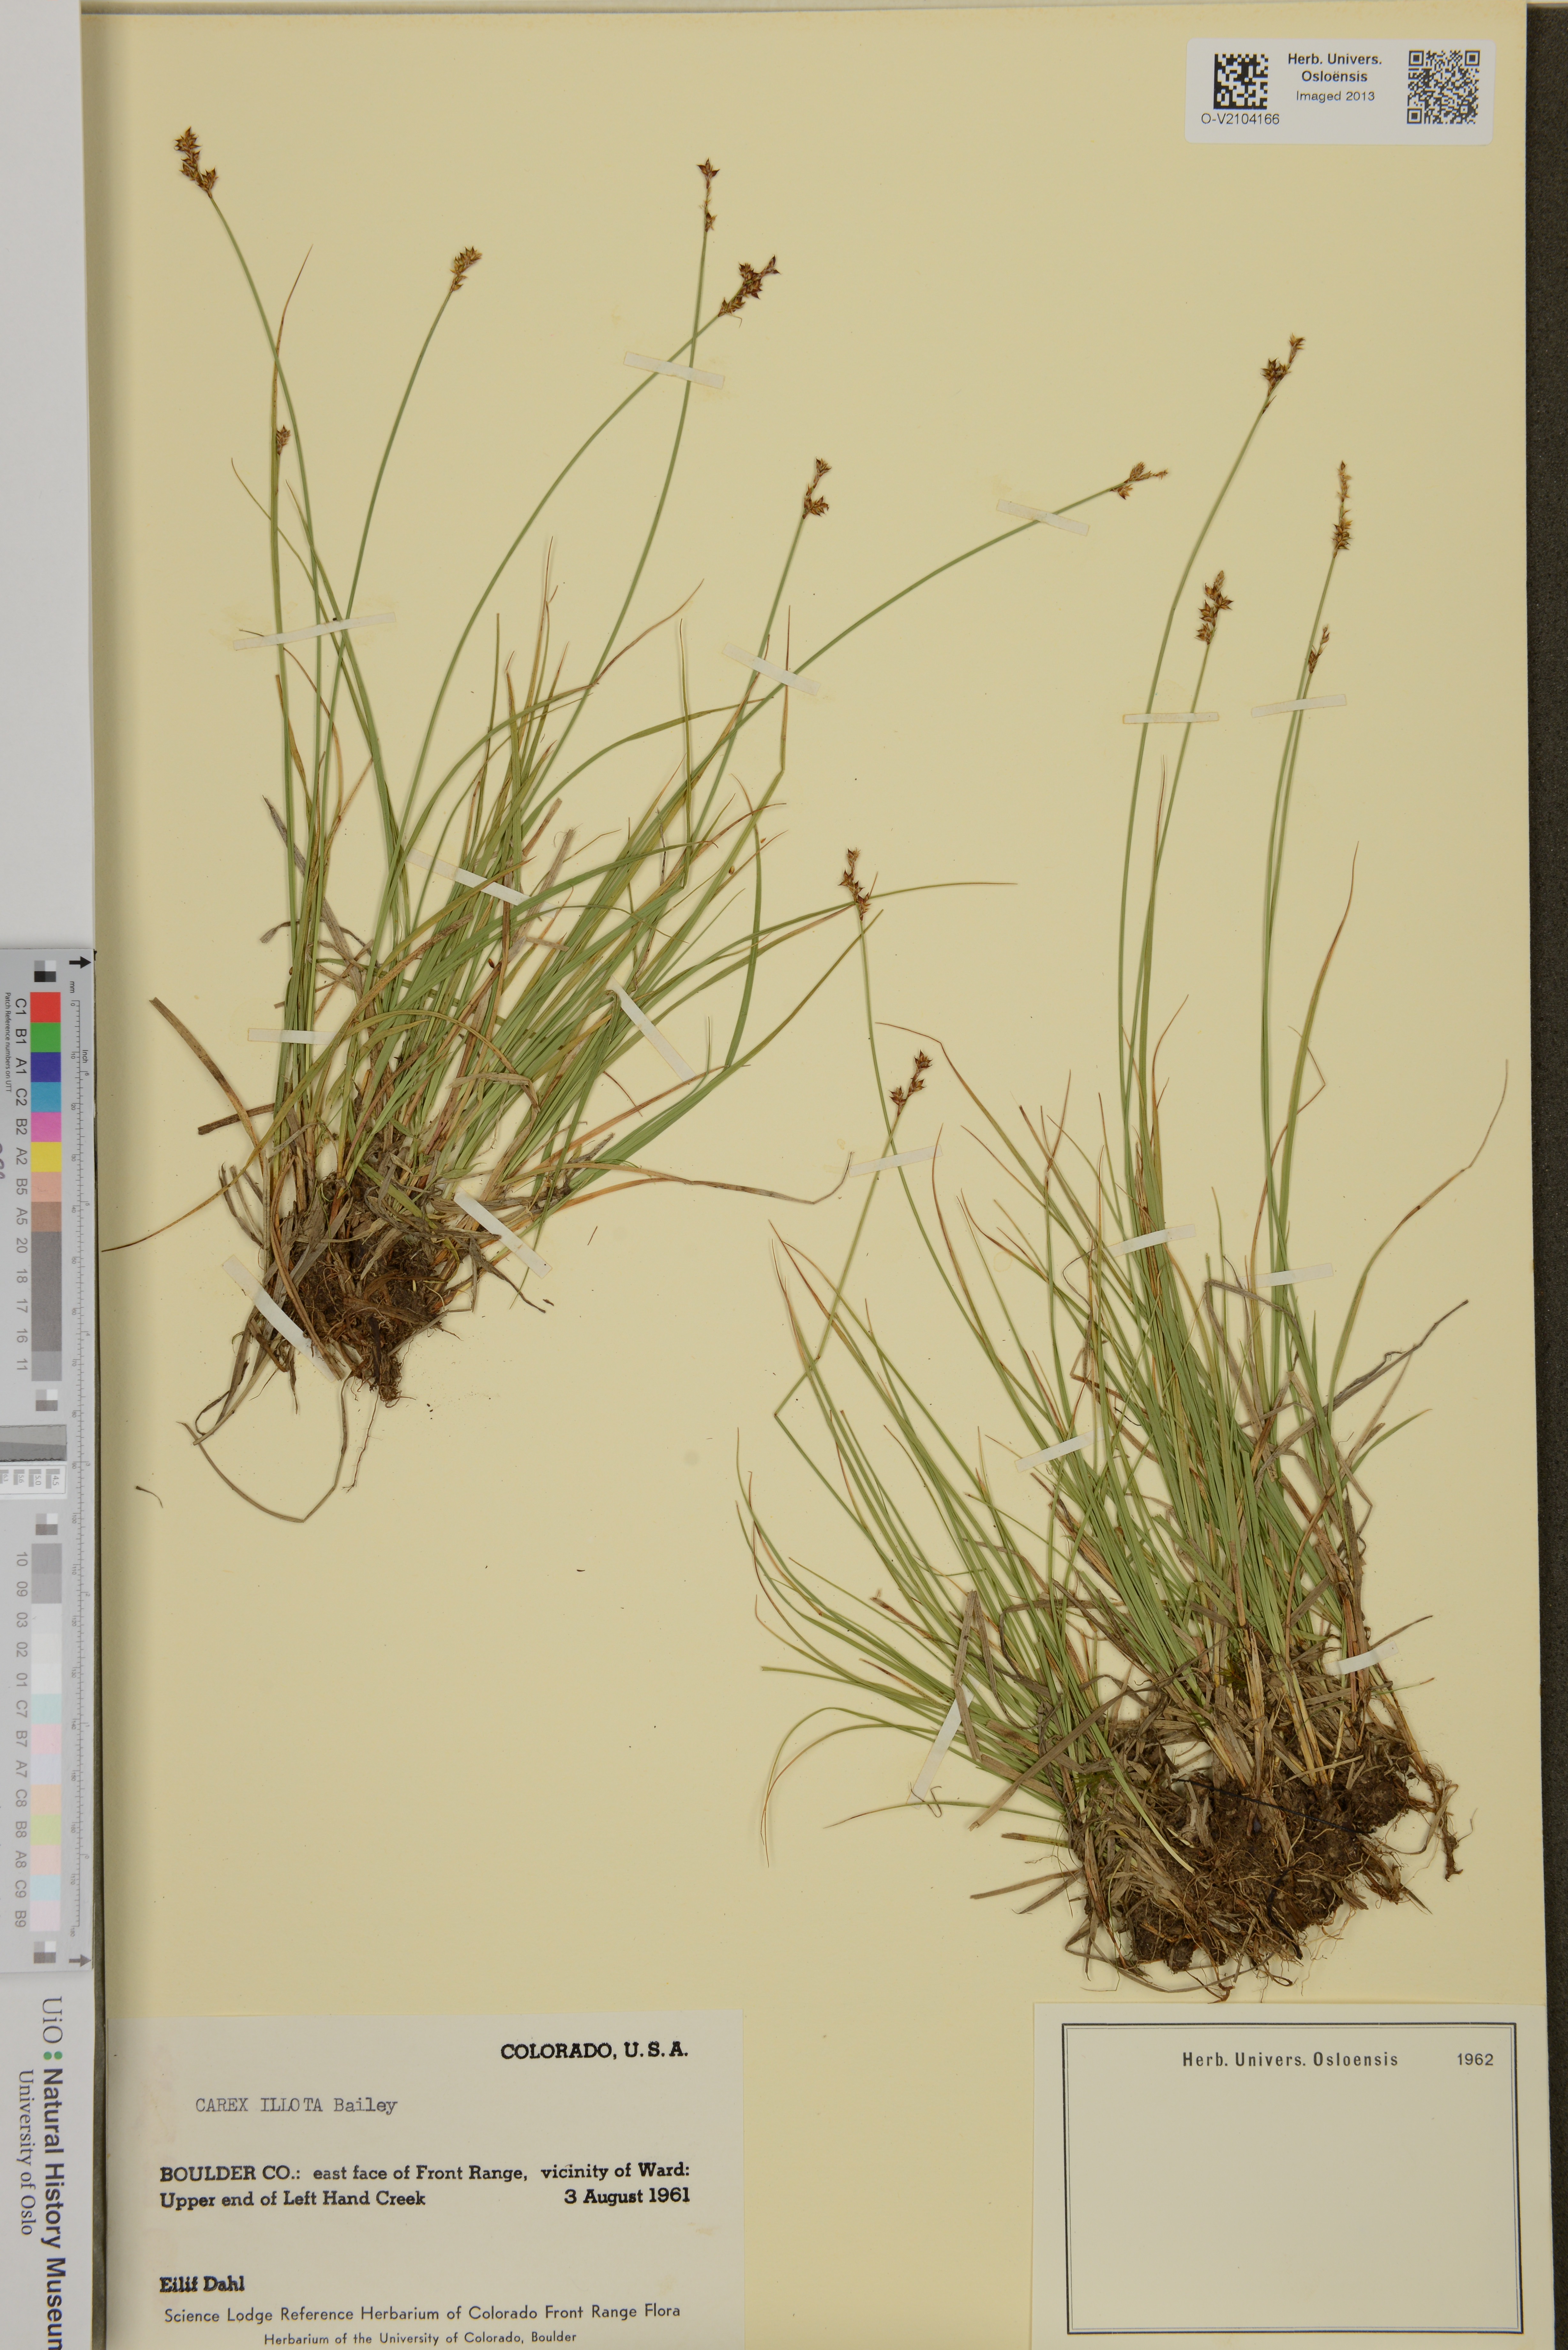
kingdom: Plantae
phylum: Tracheophyta
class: Liliopsida
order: Poales
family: Cyperaceae
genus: Carex
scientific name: Carex illota
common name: Sheep sedge
